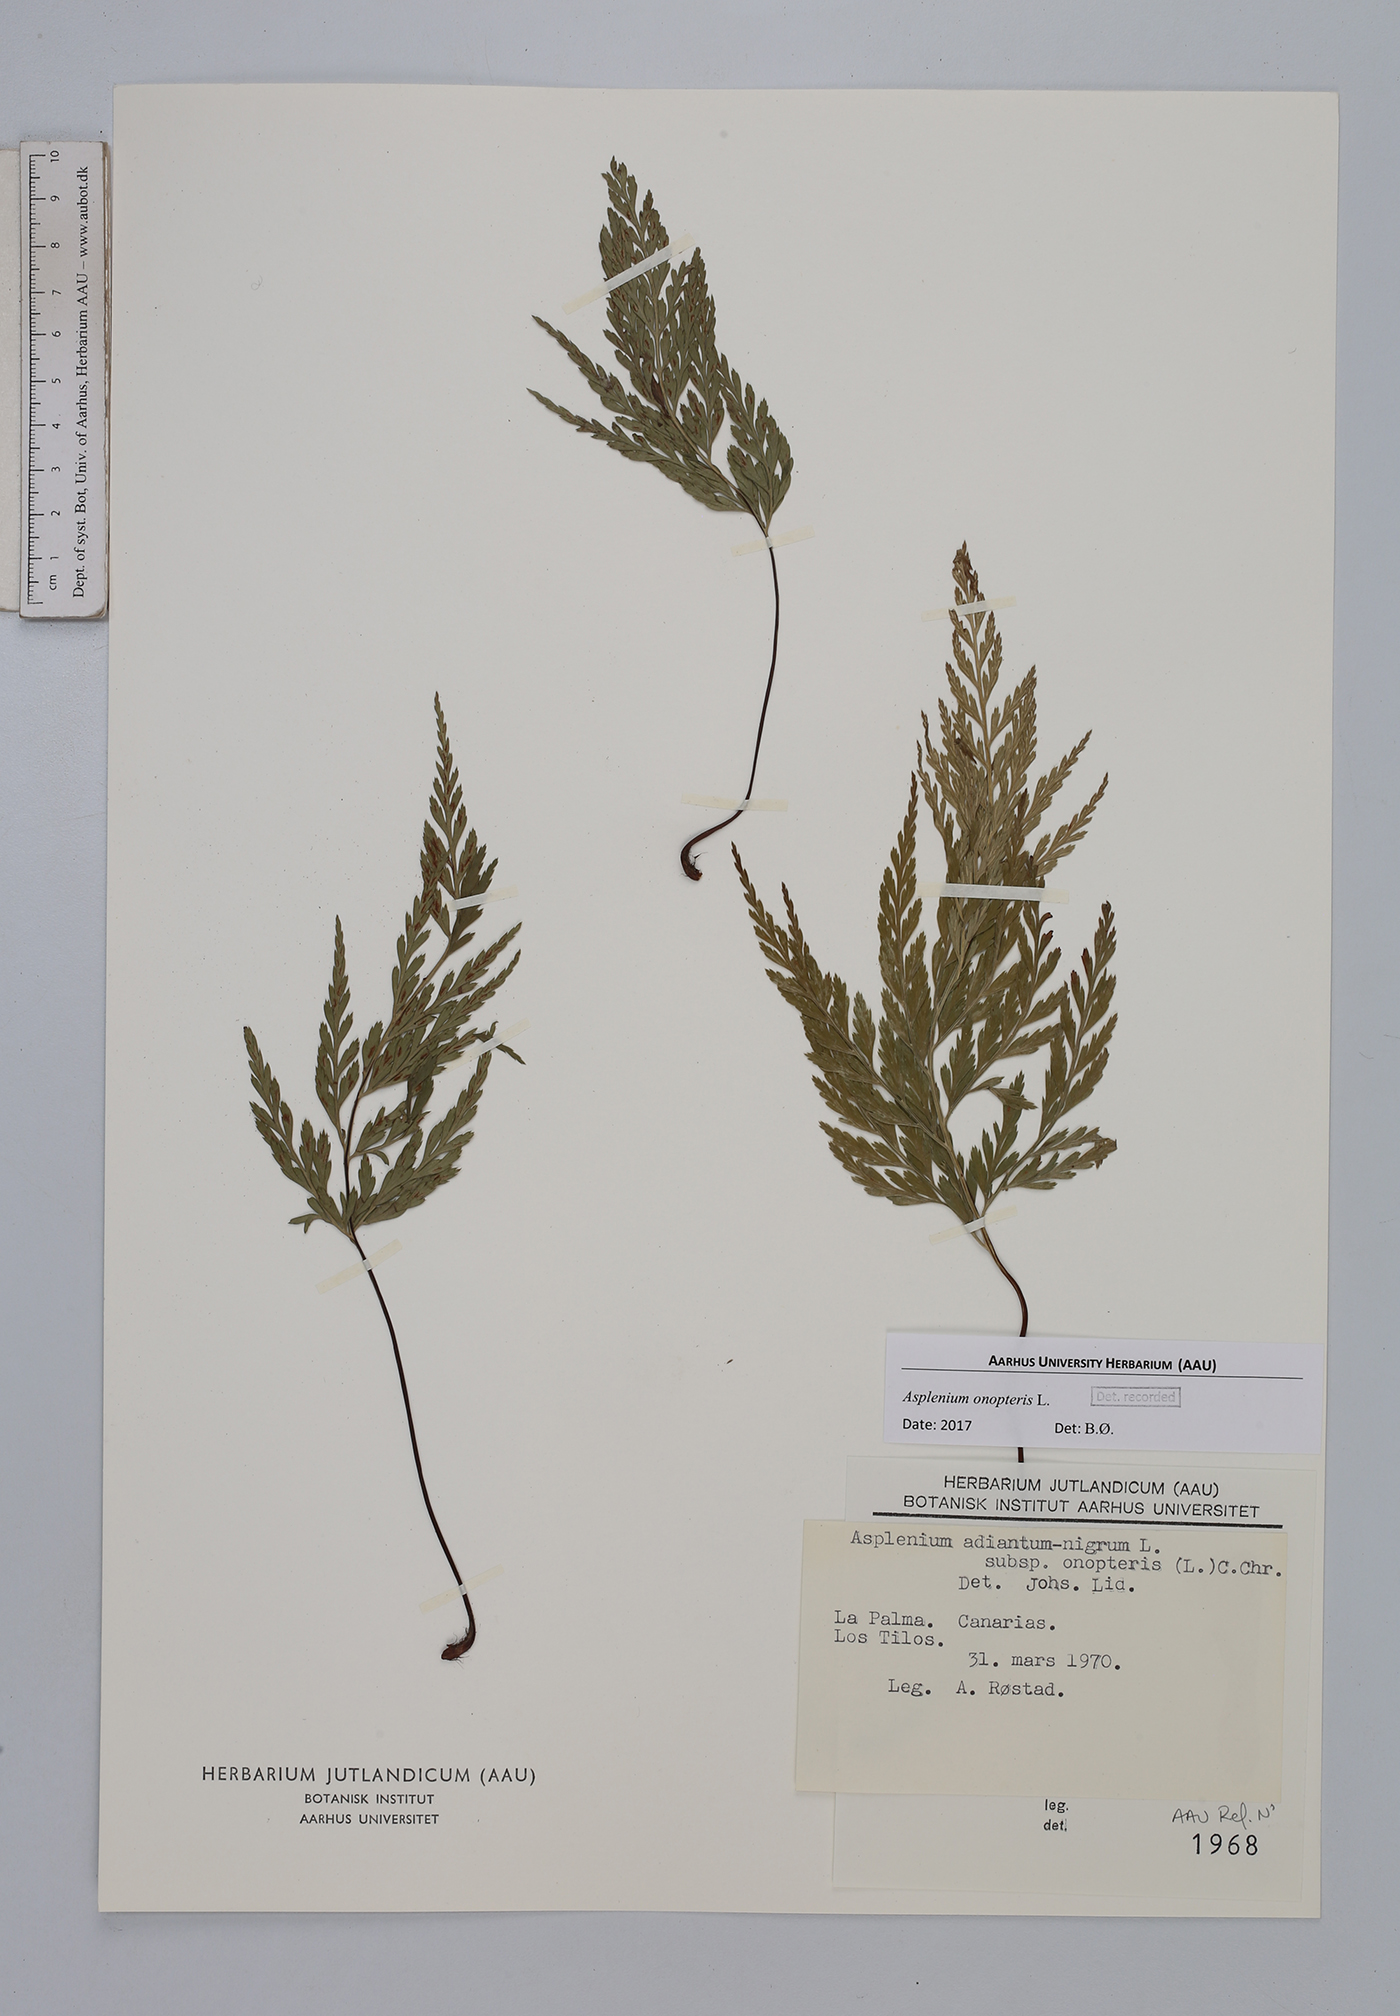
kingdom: Plantae
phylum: Tracheophyta
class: Polypodiopsida
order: Polypodiales
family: Aspleniaceae
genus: Asplenium
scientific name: Asplenium onopteris
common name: Irish spleenwort
